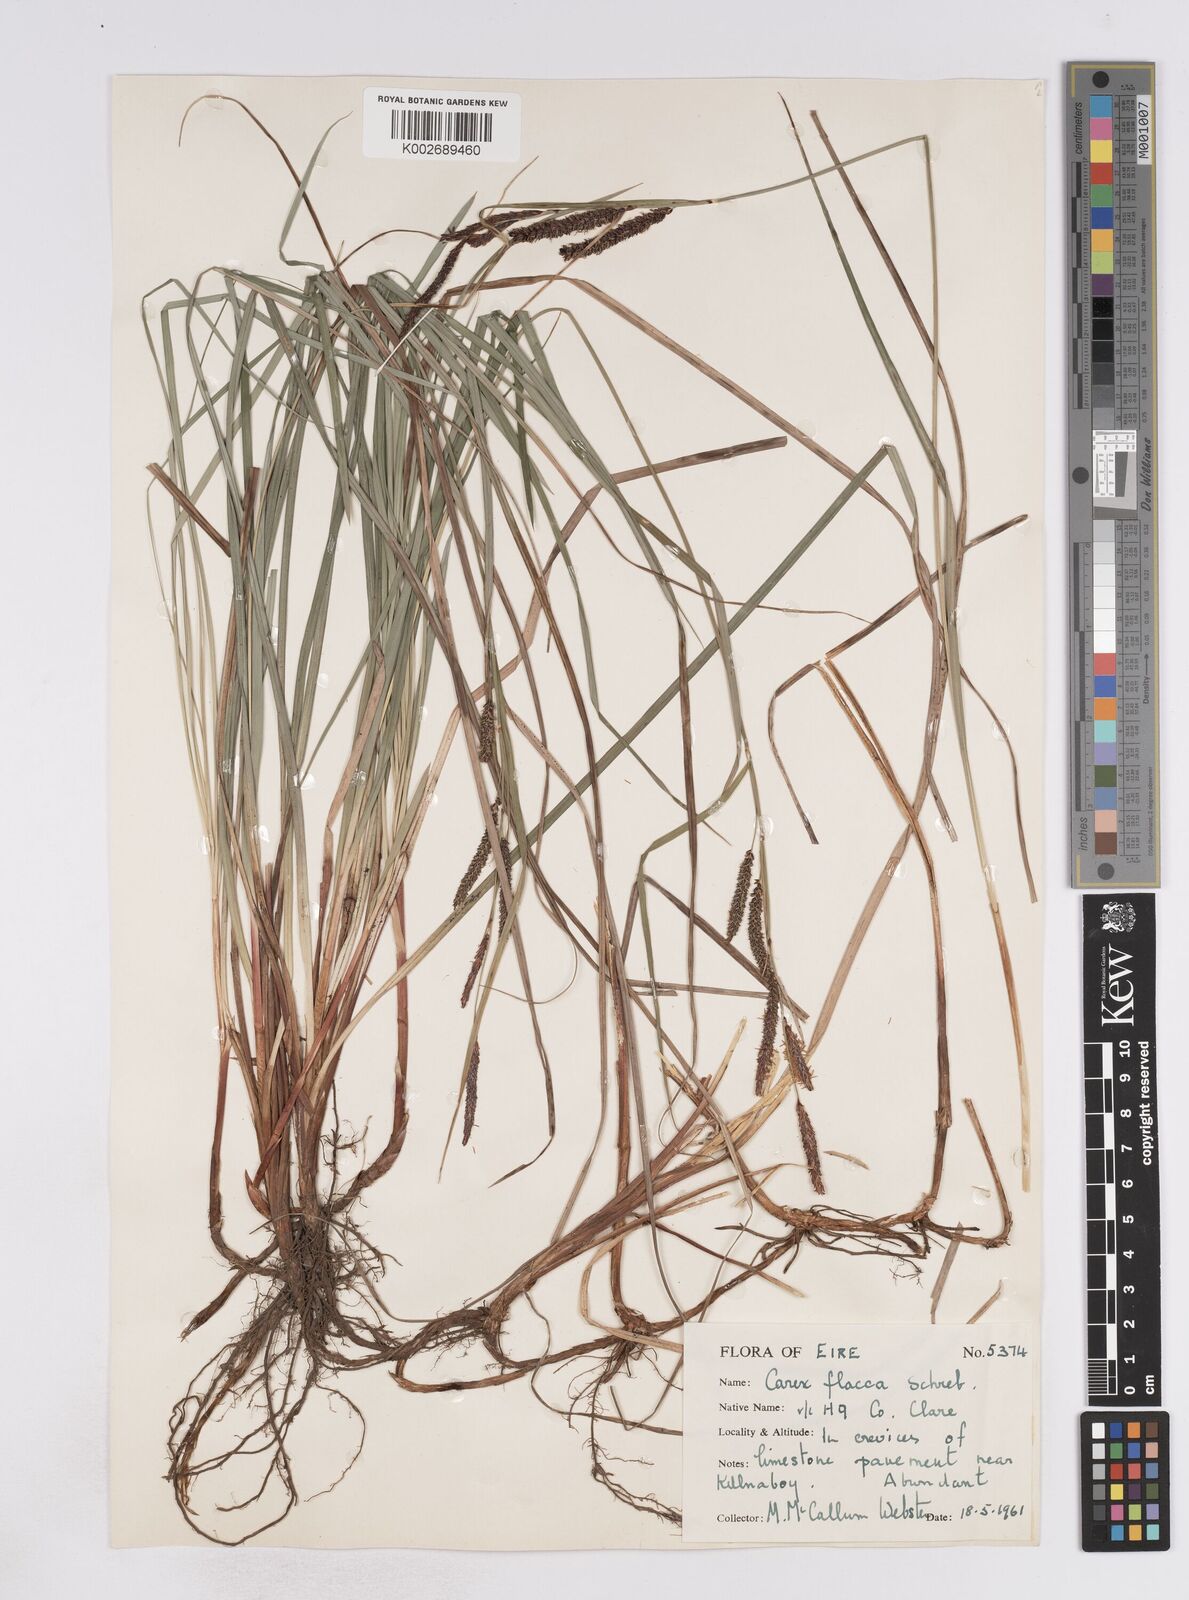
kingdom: Plantae
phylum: Tracheophyta
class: Liliopsida
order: Poales
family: Cyperaceae
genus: Carex
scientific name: Carex flacca
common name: Glaucous sedge
